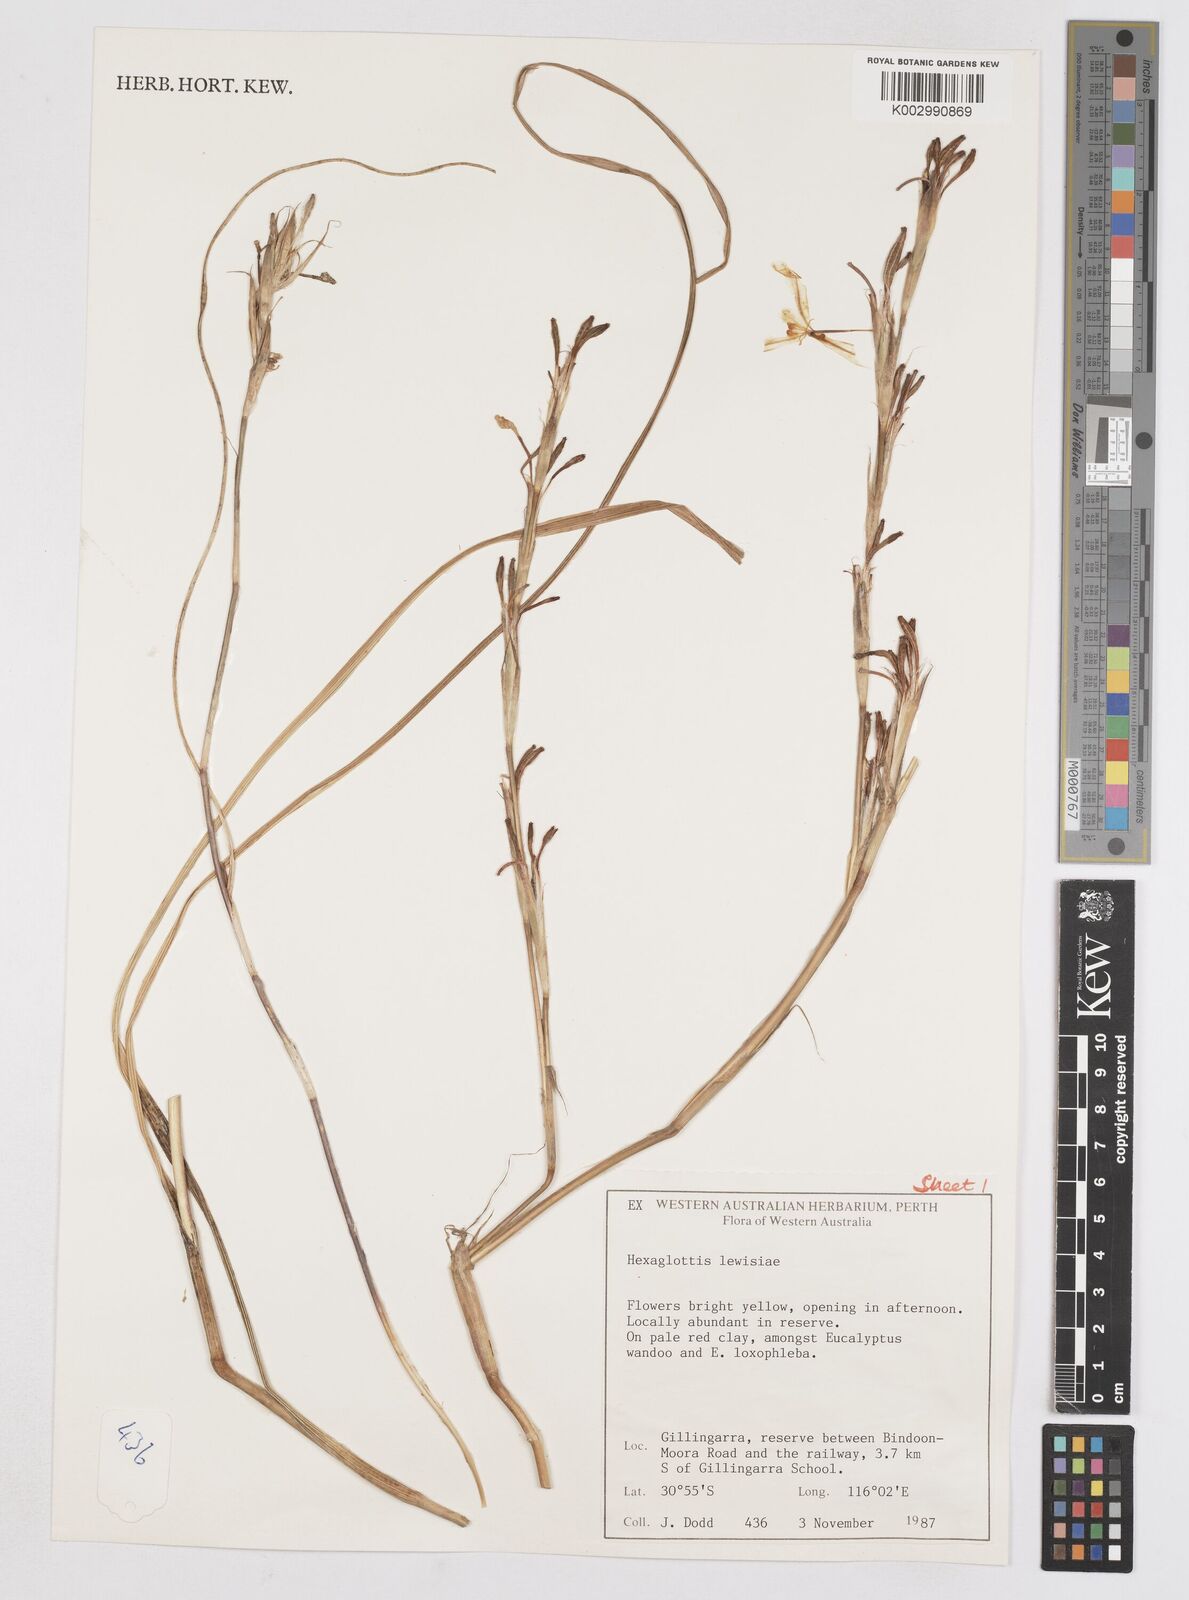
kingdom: Plantae
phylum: Tracheophyta
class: Liliopsida
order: Asparagales
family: Iridaceae
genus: Moraea
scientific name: Moraea lewisiae
